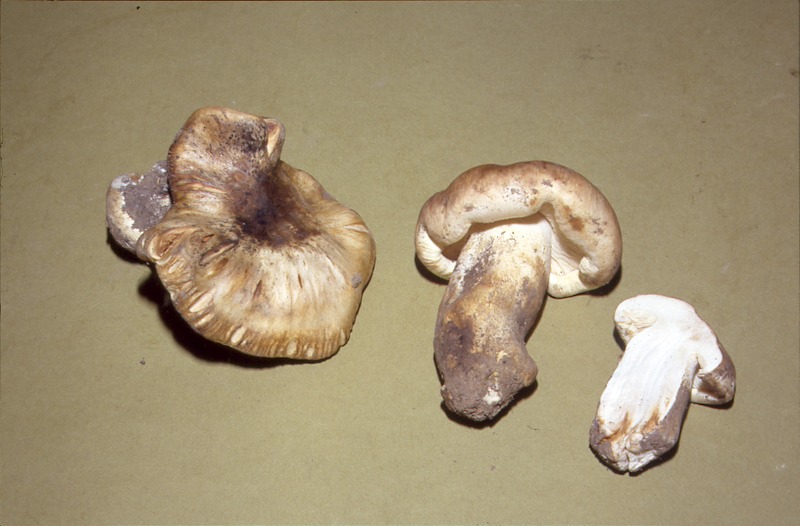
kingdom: Fungi
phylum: Basidiomycota
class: Agaricomycetes
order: Agaricales
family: Tricholomataceae
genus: Tricholoma
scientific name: Tricholoma acerbum
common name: Bitter knight
